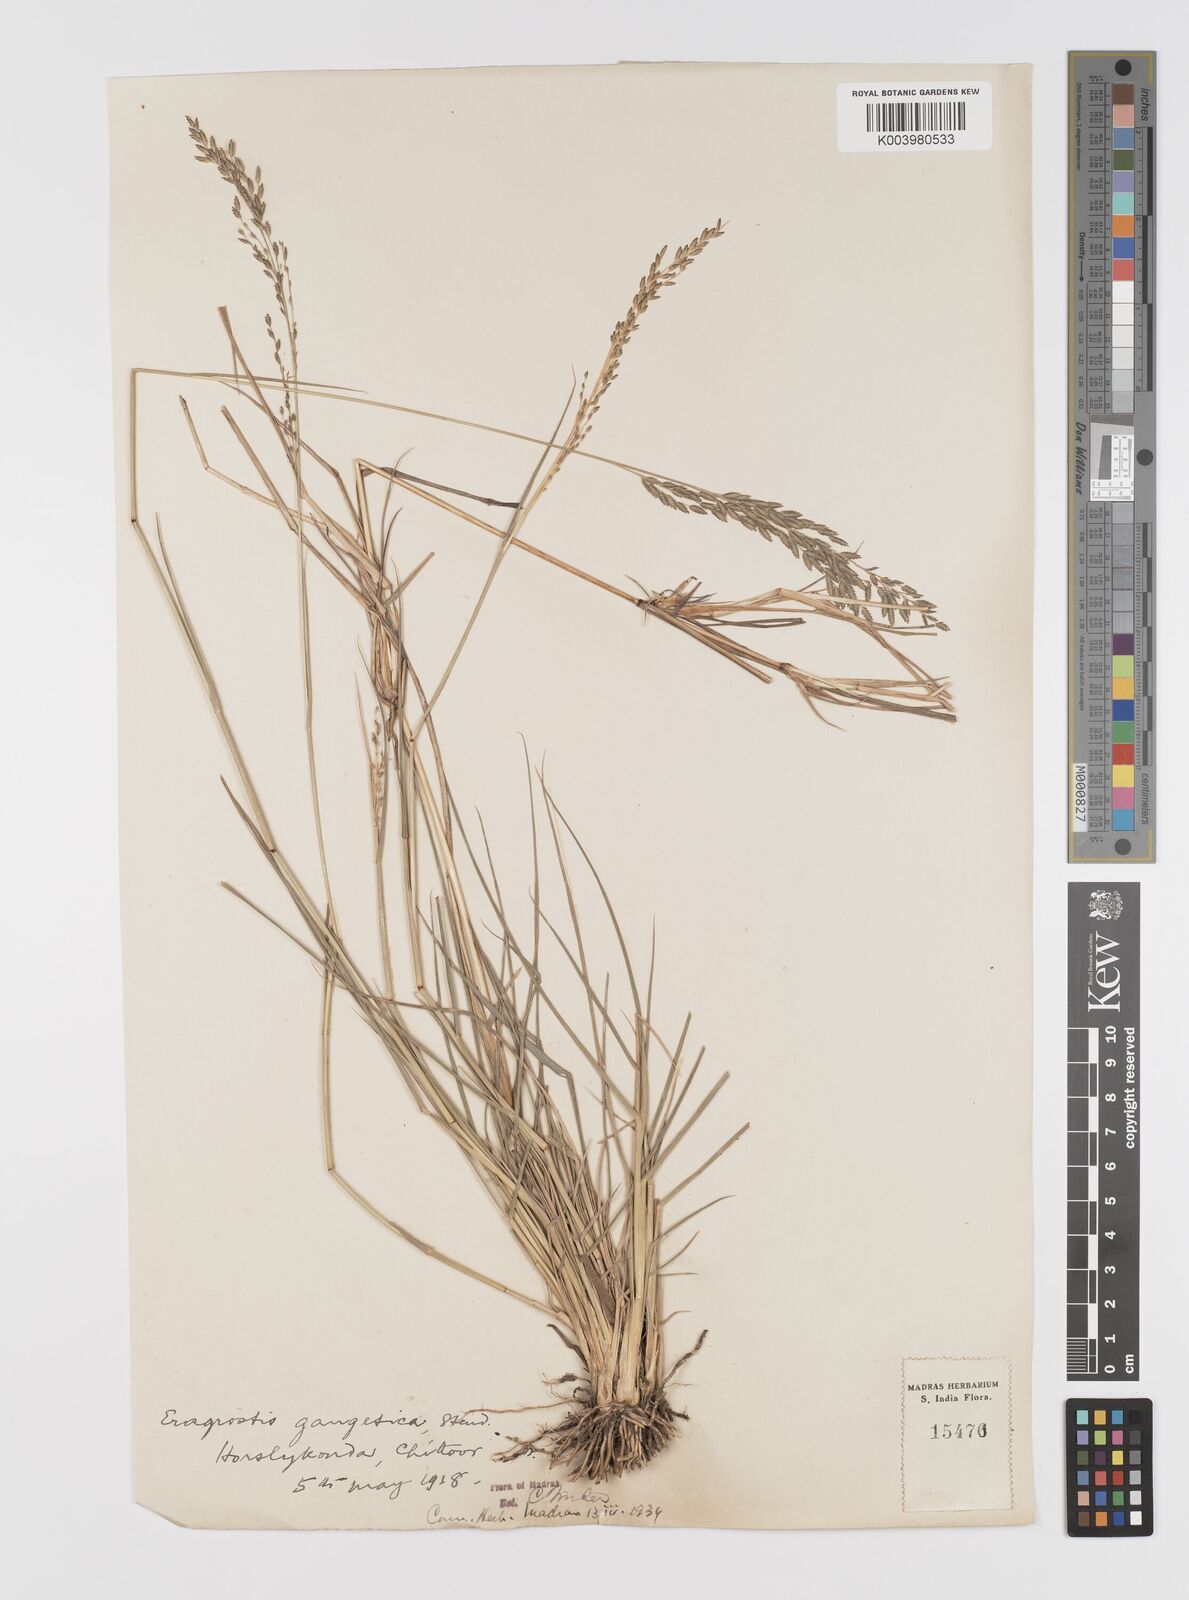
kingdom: Plantae
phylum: Tracheophyta
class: Liliopsida
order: Poales
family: Poaceae
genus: Eragrostis
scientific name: Eragrostis
